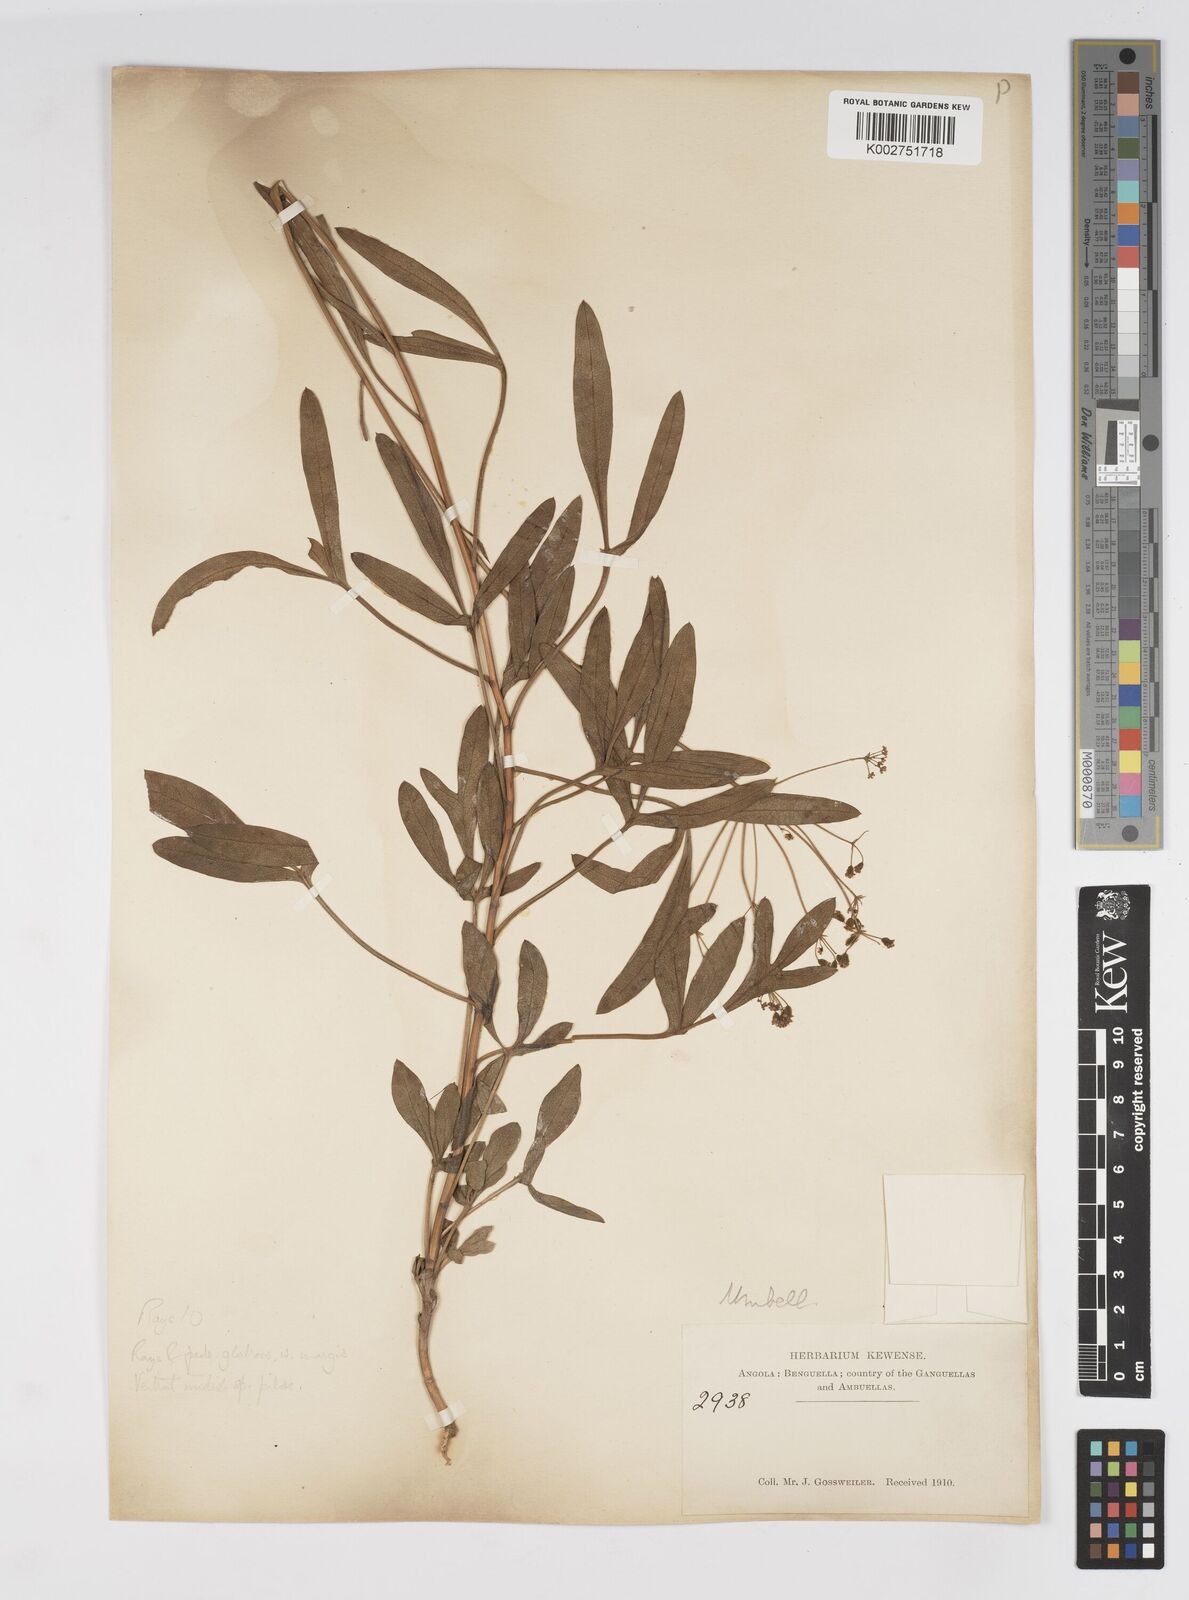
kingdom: Plantae
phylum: Tracheophyta
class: Magnoliopsida
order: Apiales
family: Apiaceae
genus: Heteromorpha
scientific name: Heteromorpha gossweileri
